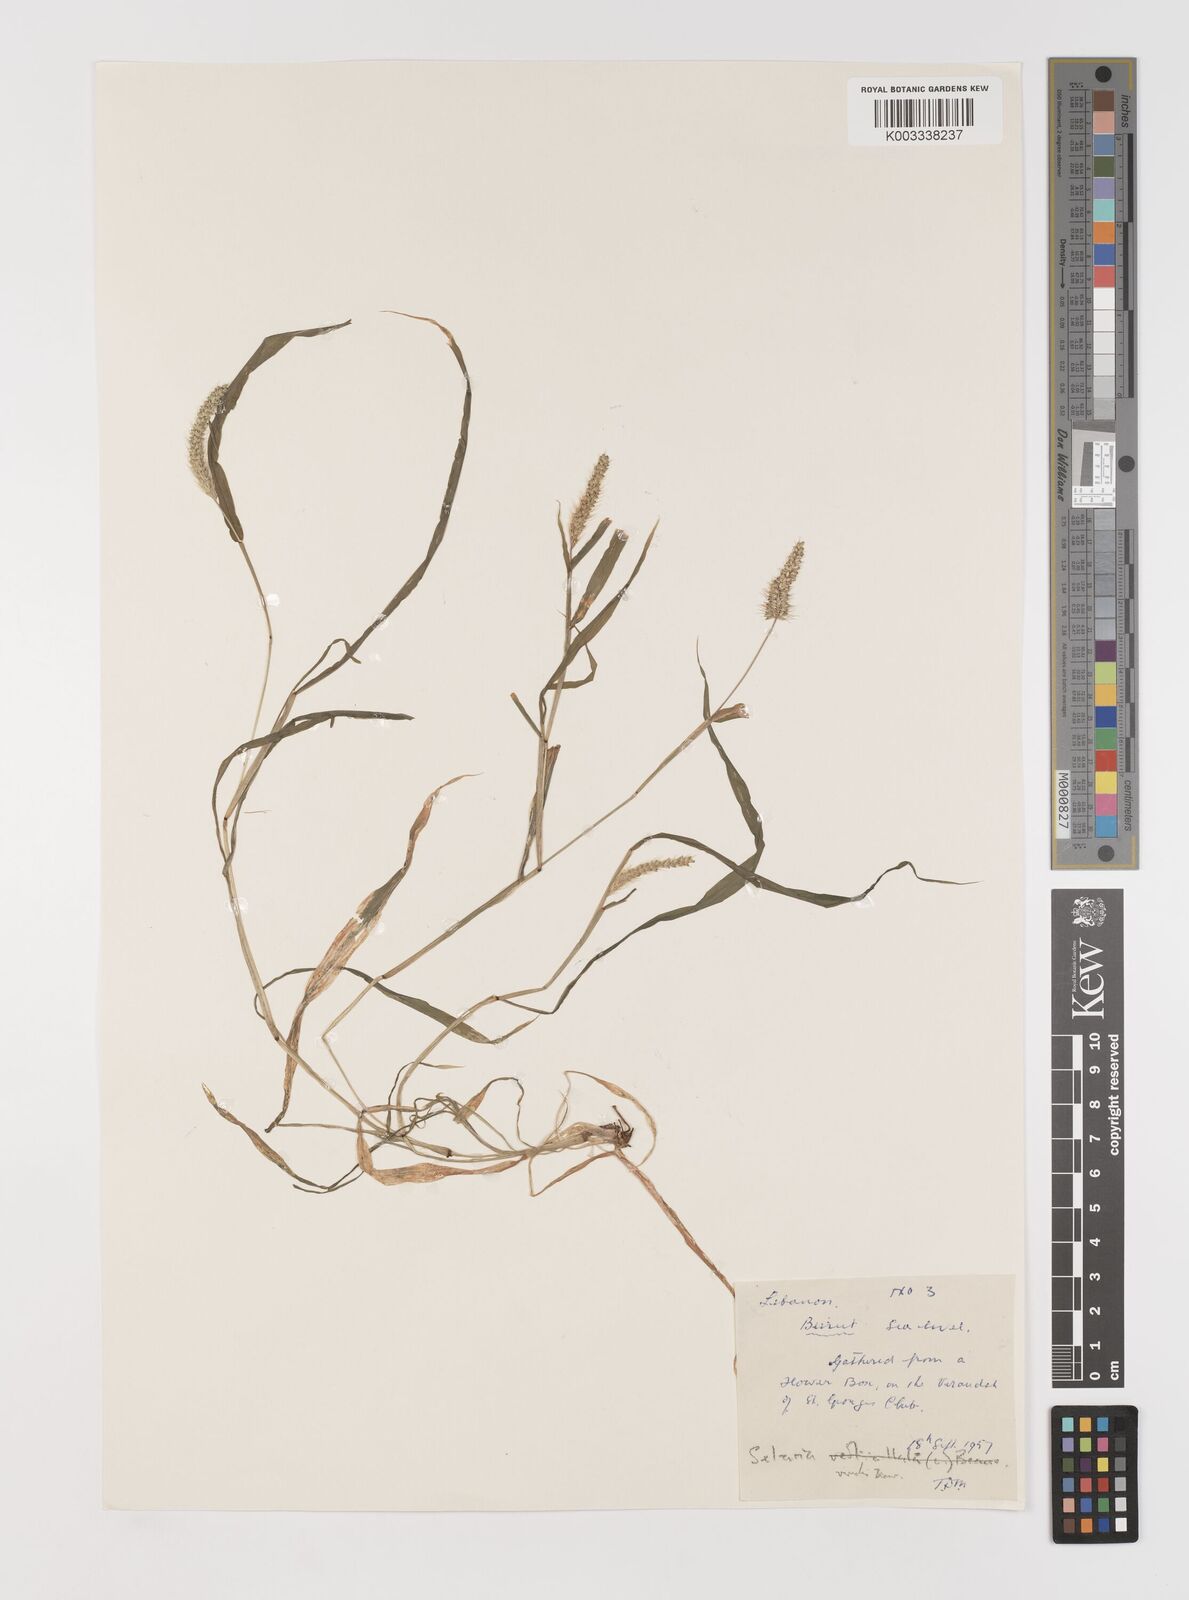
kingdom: Plantae
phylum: Tracheophyta
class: Liliopsida
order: Poales
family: Poaceae
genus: Setaria
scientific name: Setaria verticillata
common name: Hooked bristlegrass
